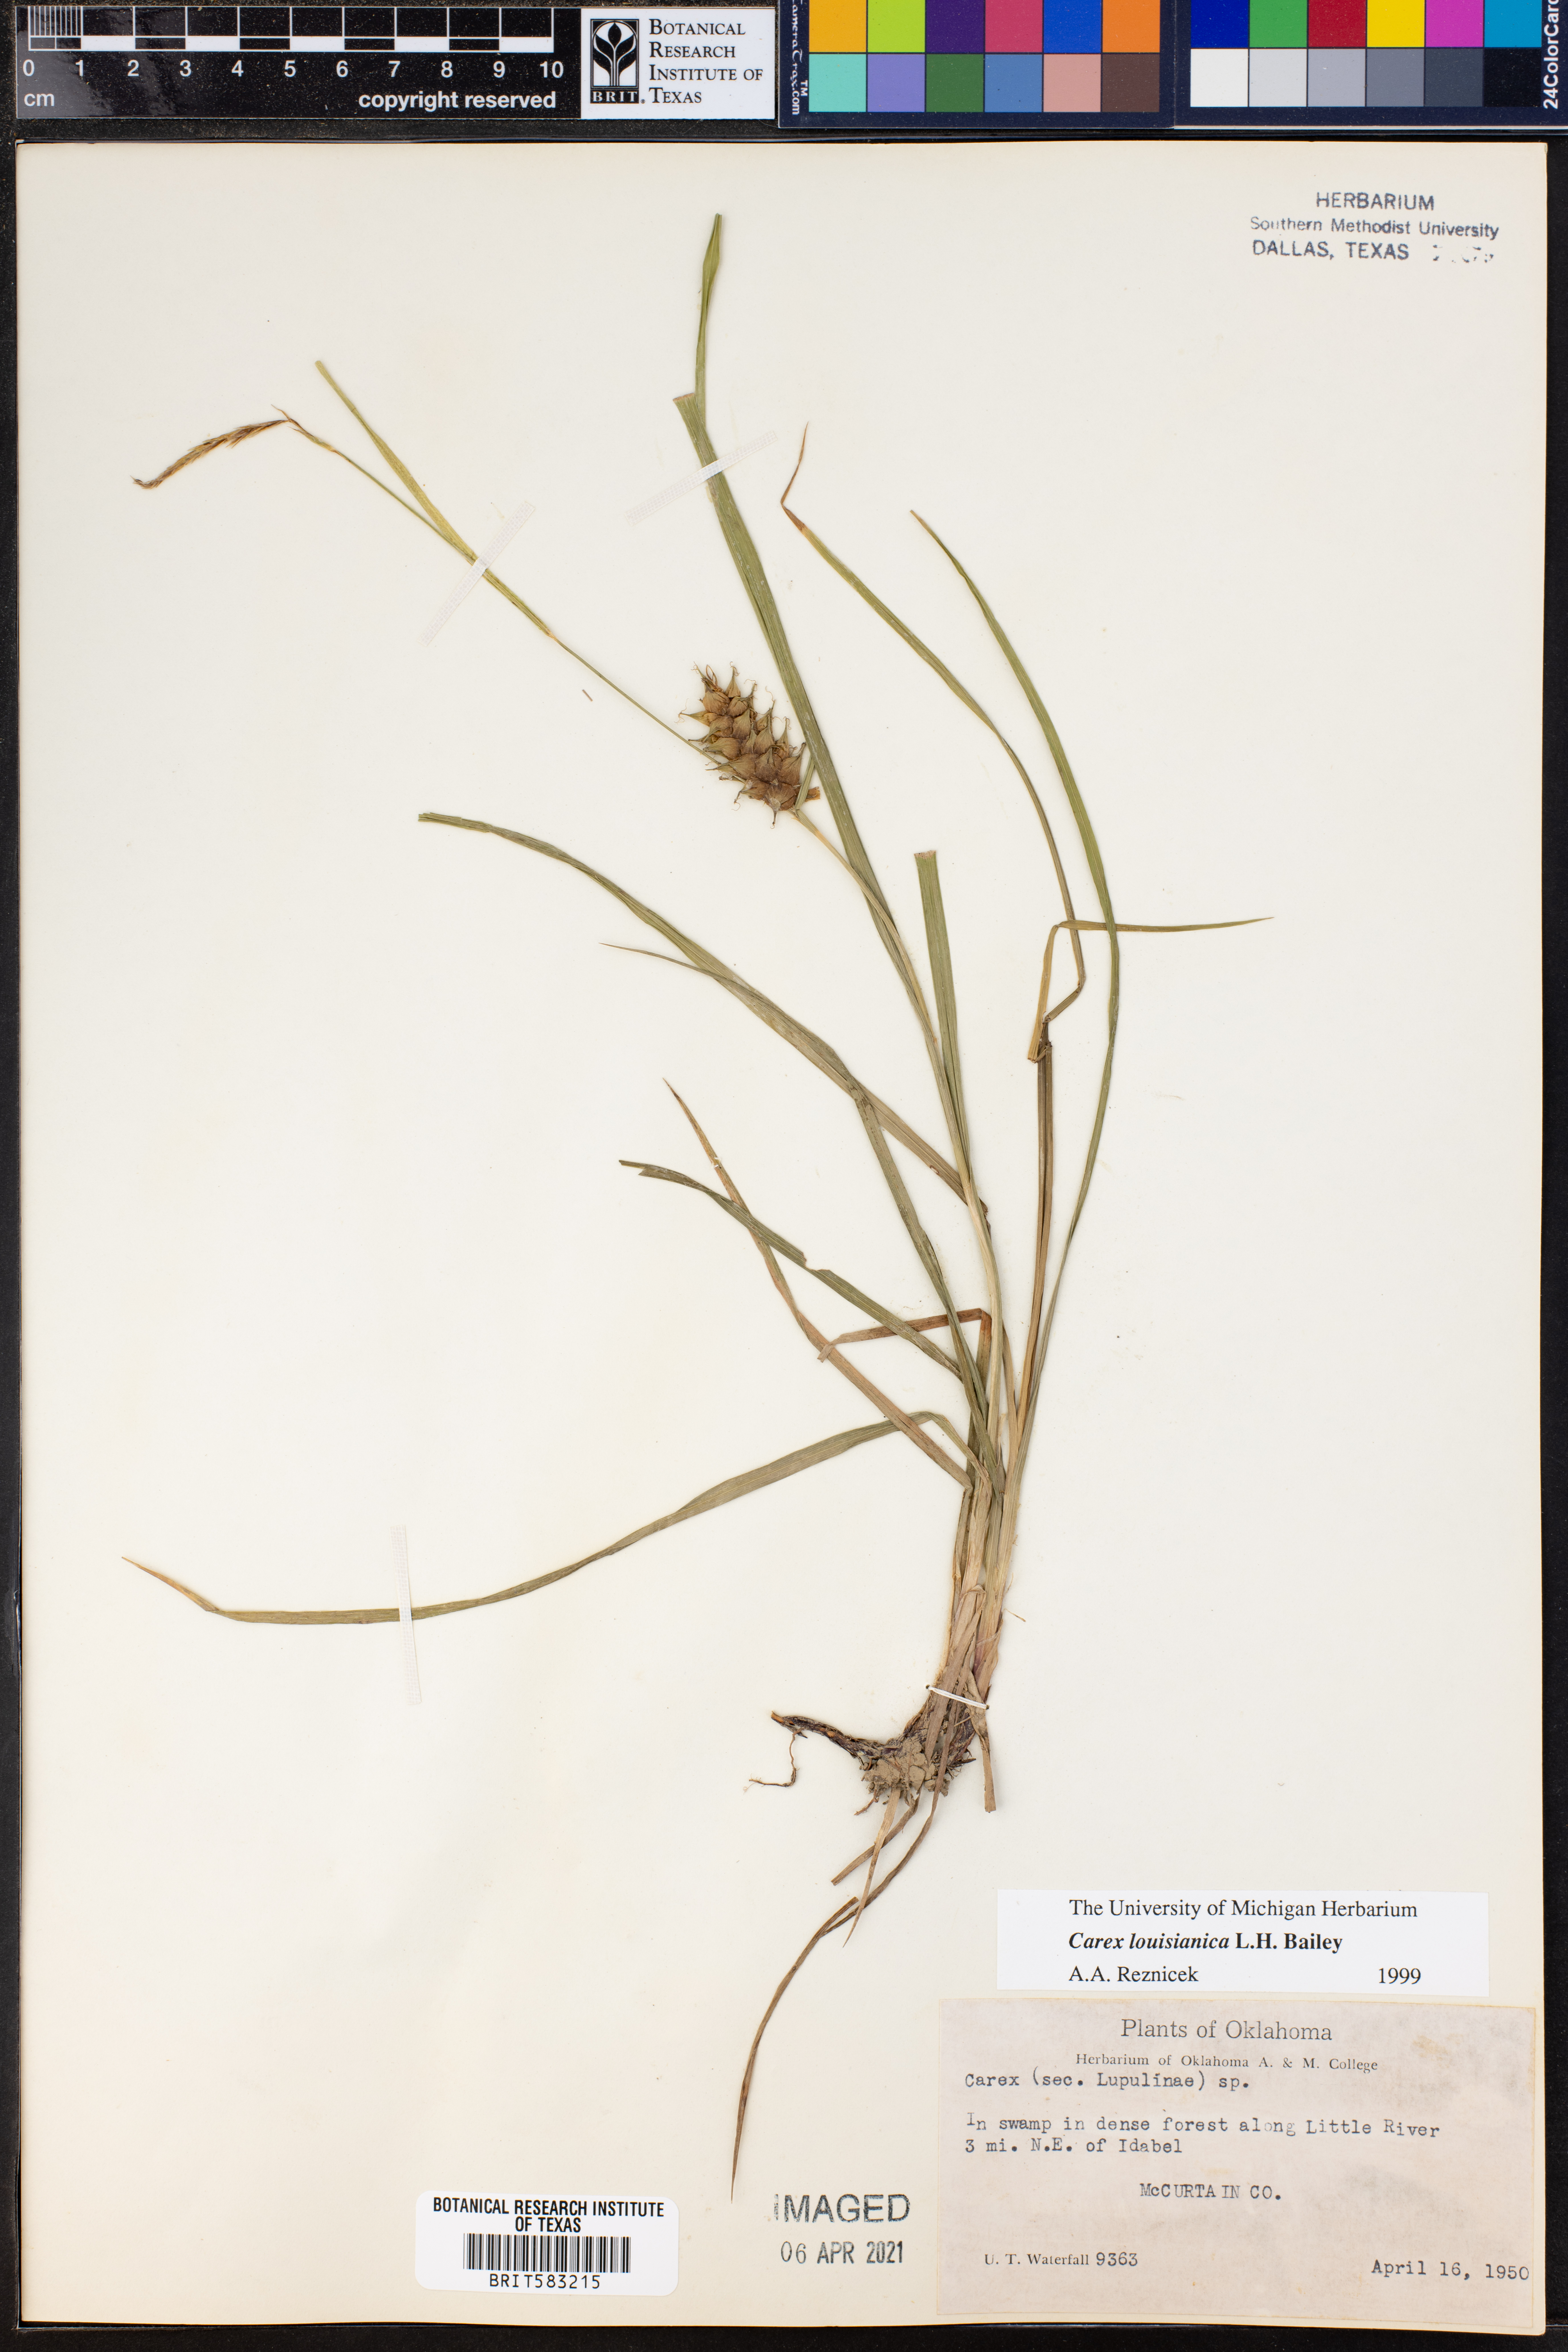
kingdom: Plantae
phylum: Tracheophyta
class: Liliopsida
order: Poales
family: Cyperaceae
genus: Carex
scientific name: Carex louisianica
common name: Louisiana sedge
